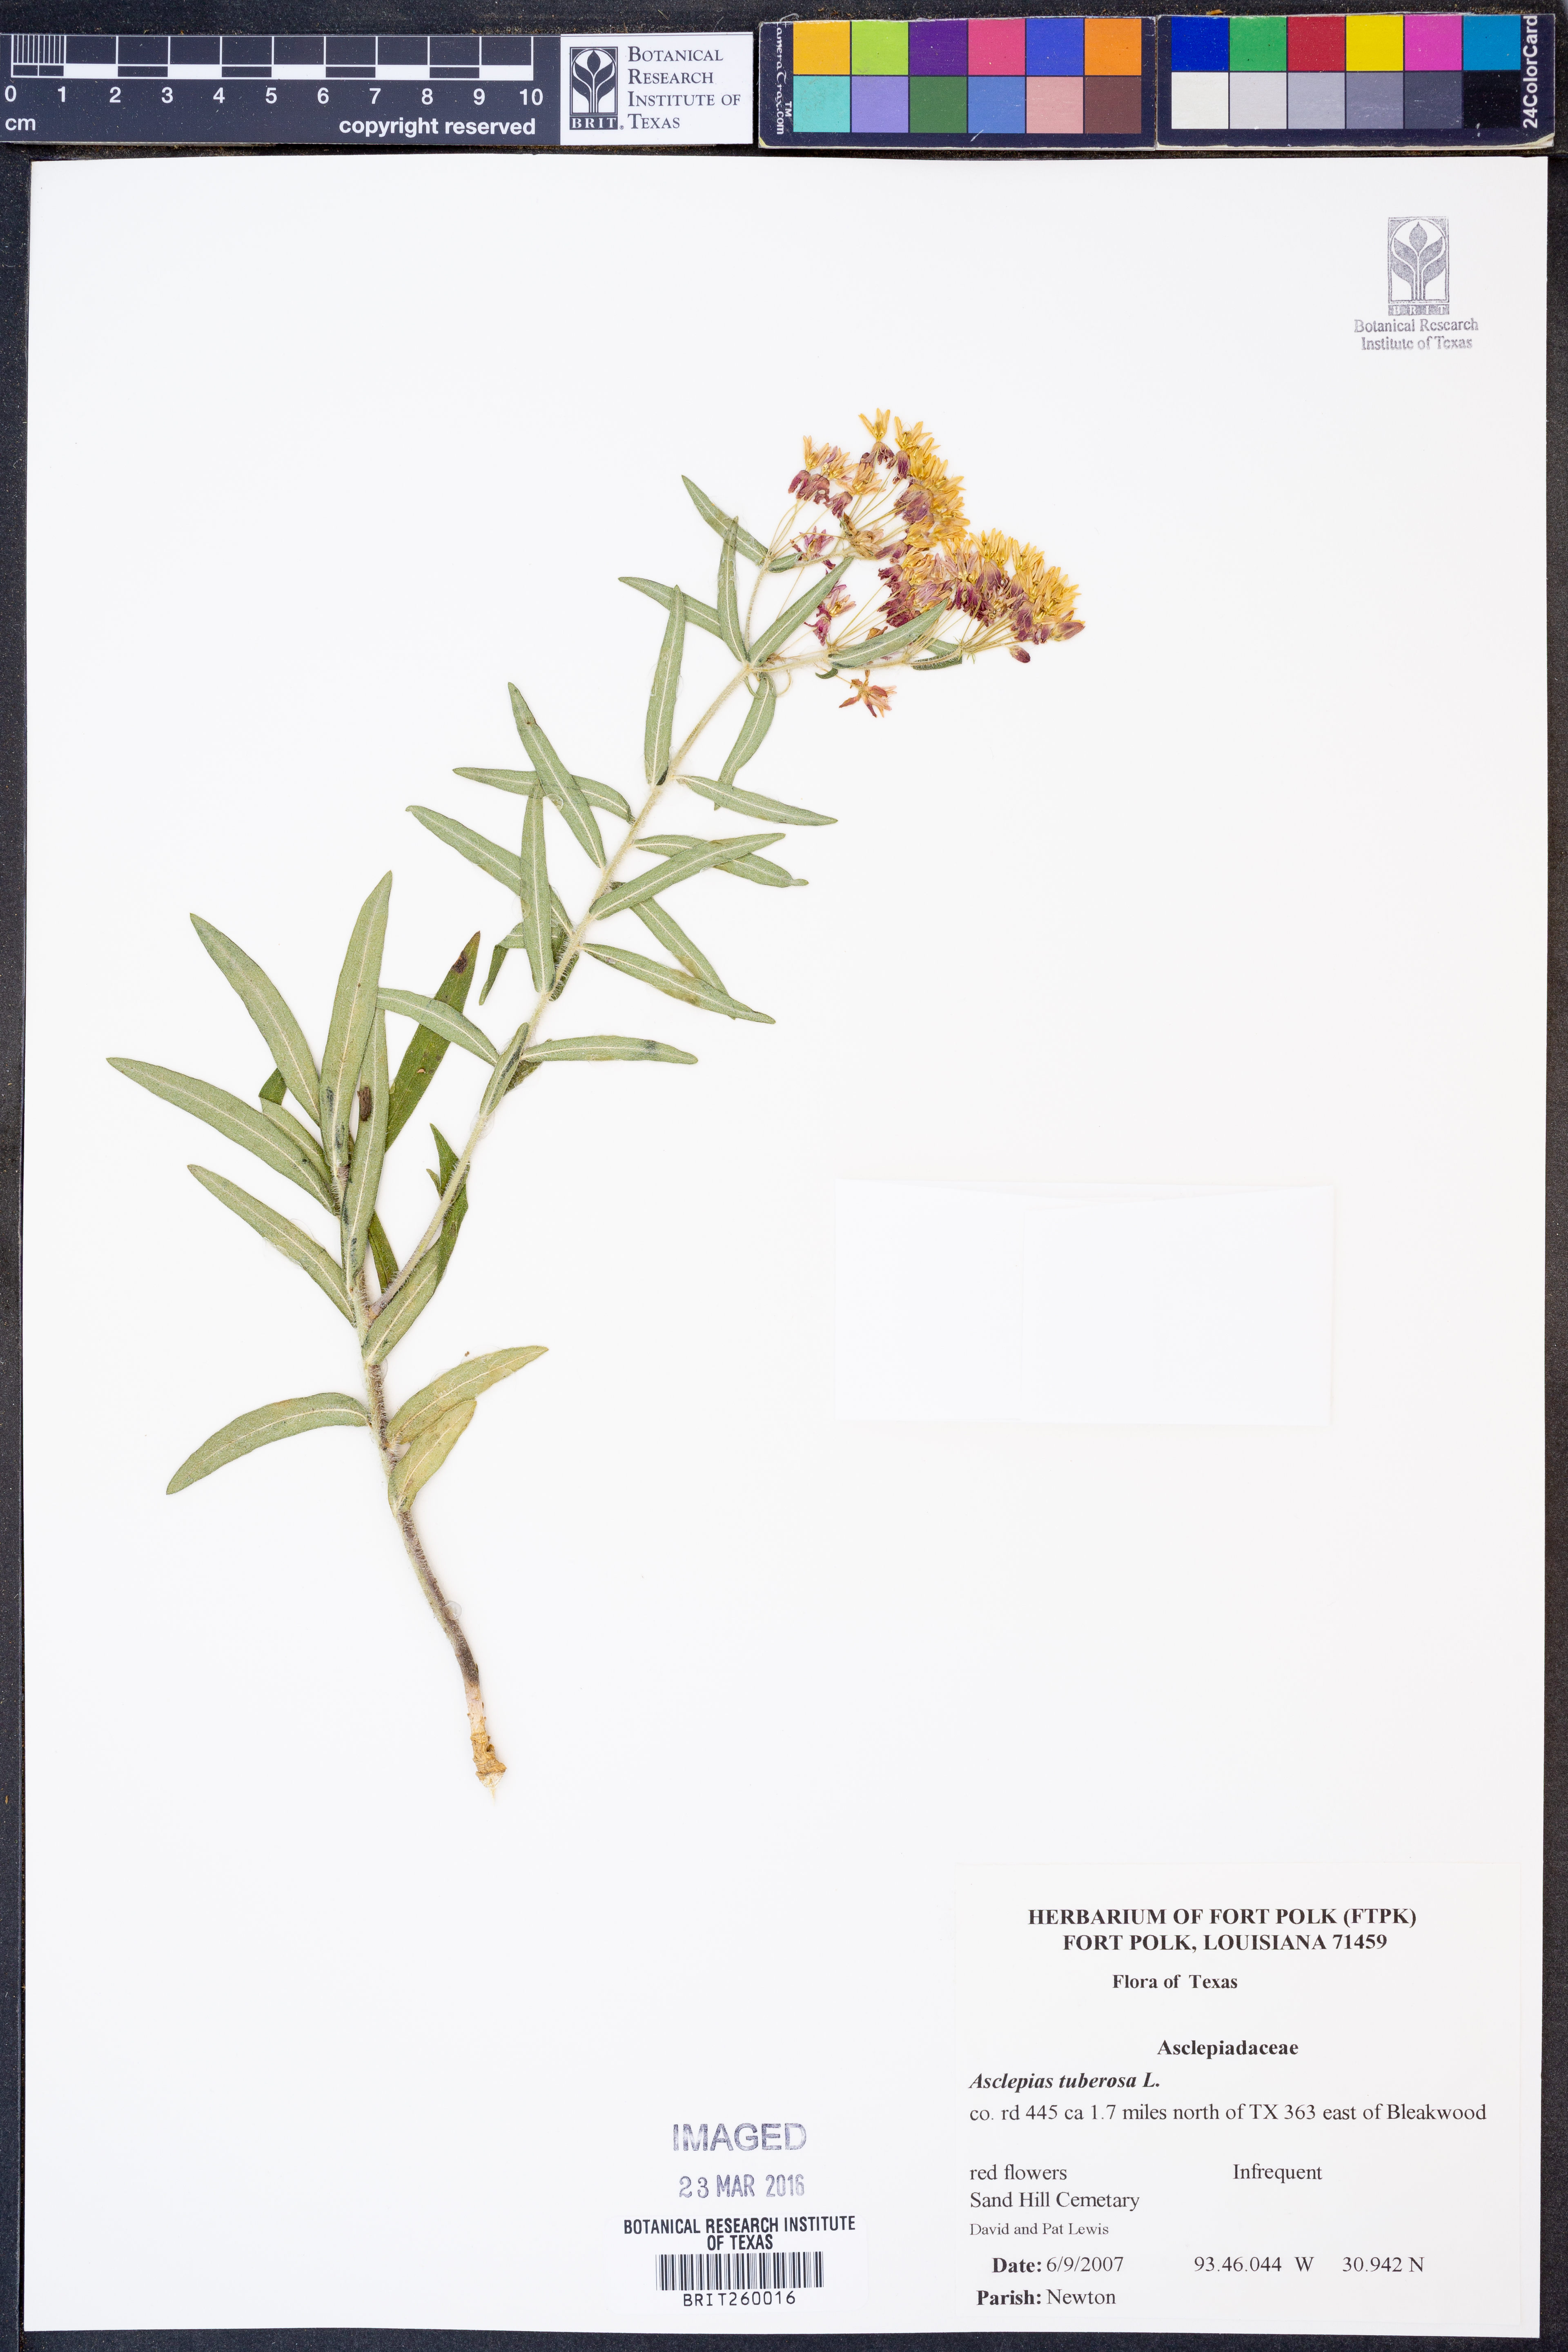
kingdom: Plantae
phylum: Tracheophyta
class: Magnoliopsida
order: Gentianales
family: Apocynaceae
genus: Asclepias
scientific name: Asclepias tuberosa
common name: Butterfly milkweed
